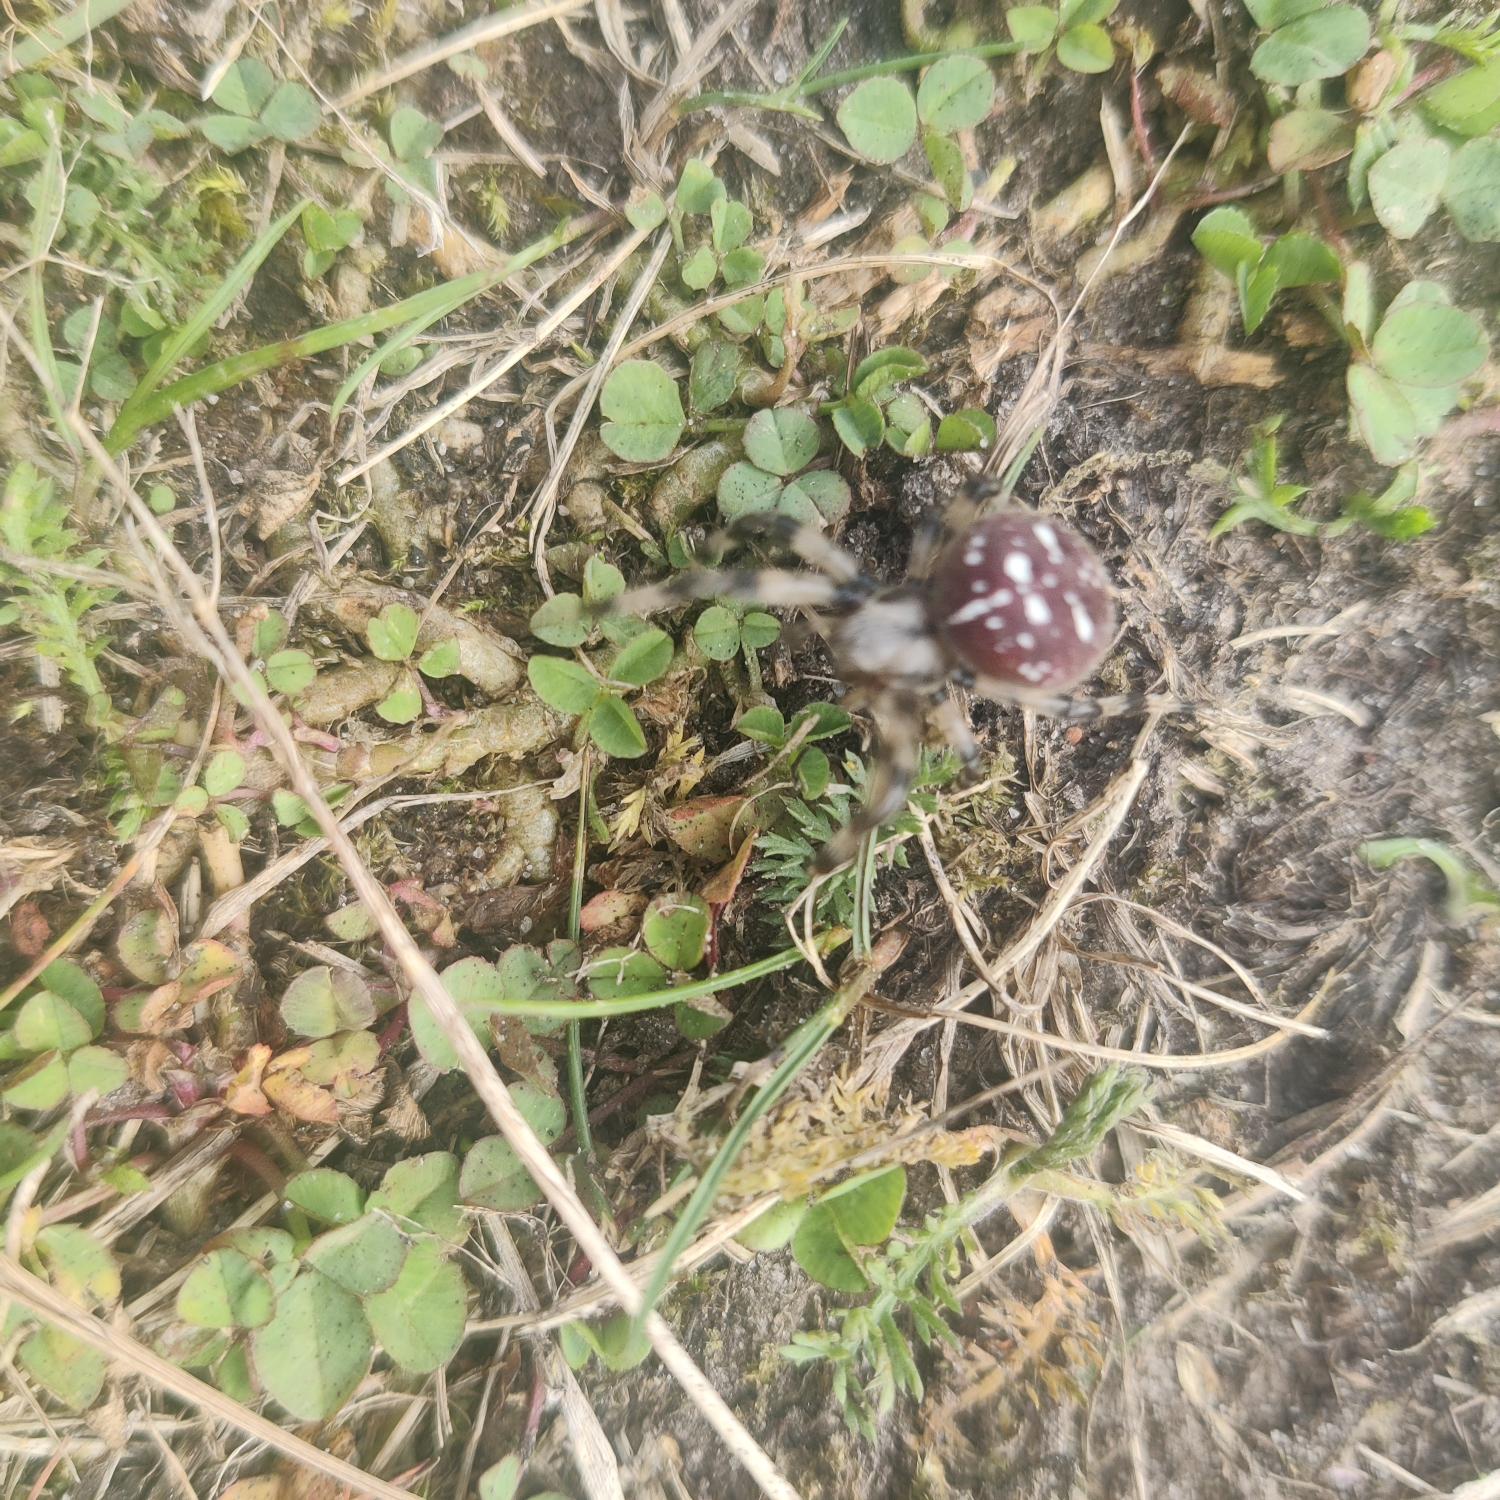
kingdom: Animalia
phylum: Arthropoda
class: Arachnida
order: Araneae
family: Araneidae
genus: Araneus
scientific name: Araneus quadratus
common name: Kvadratedderkop
